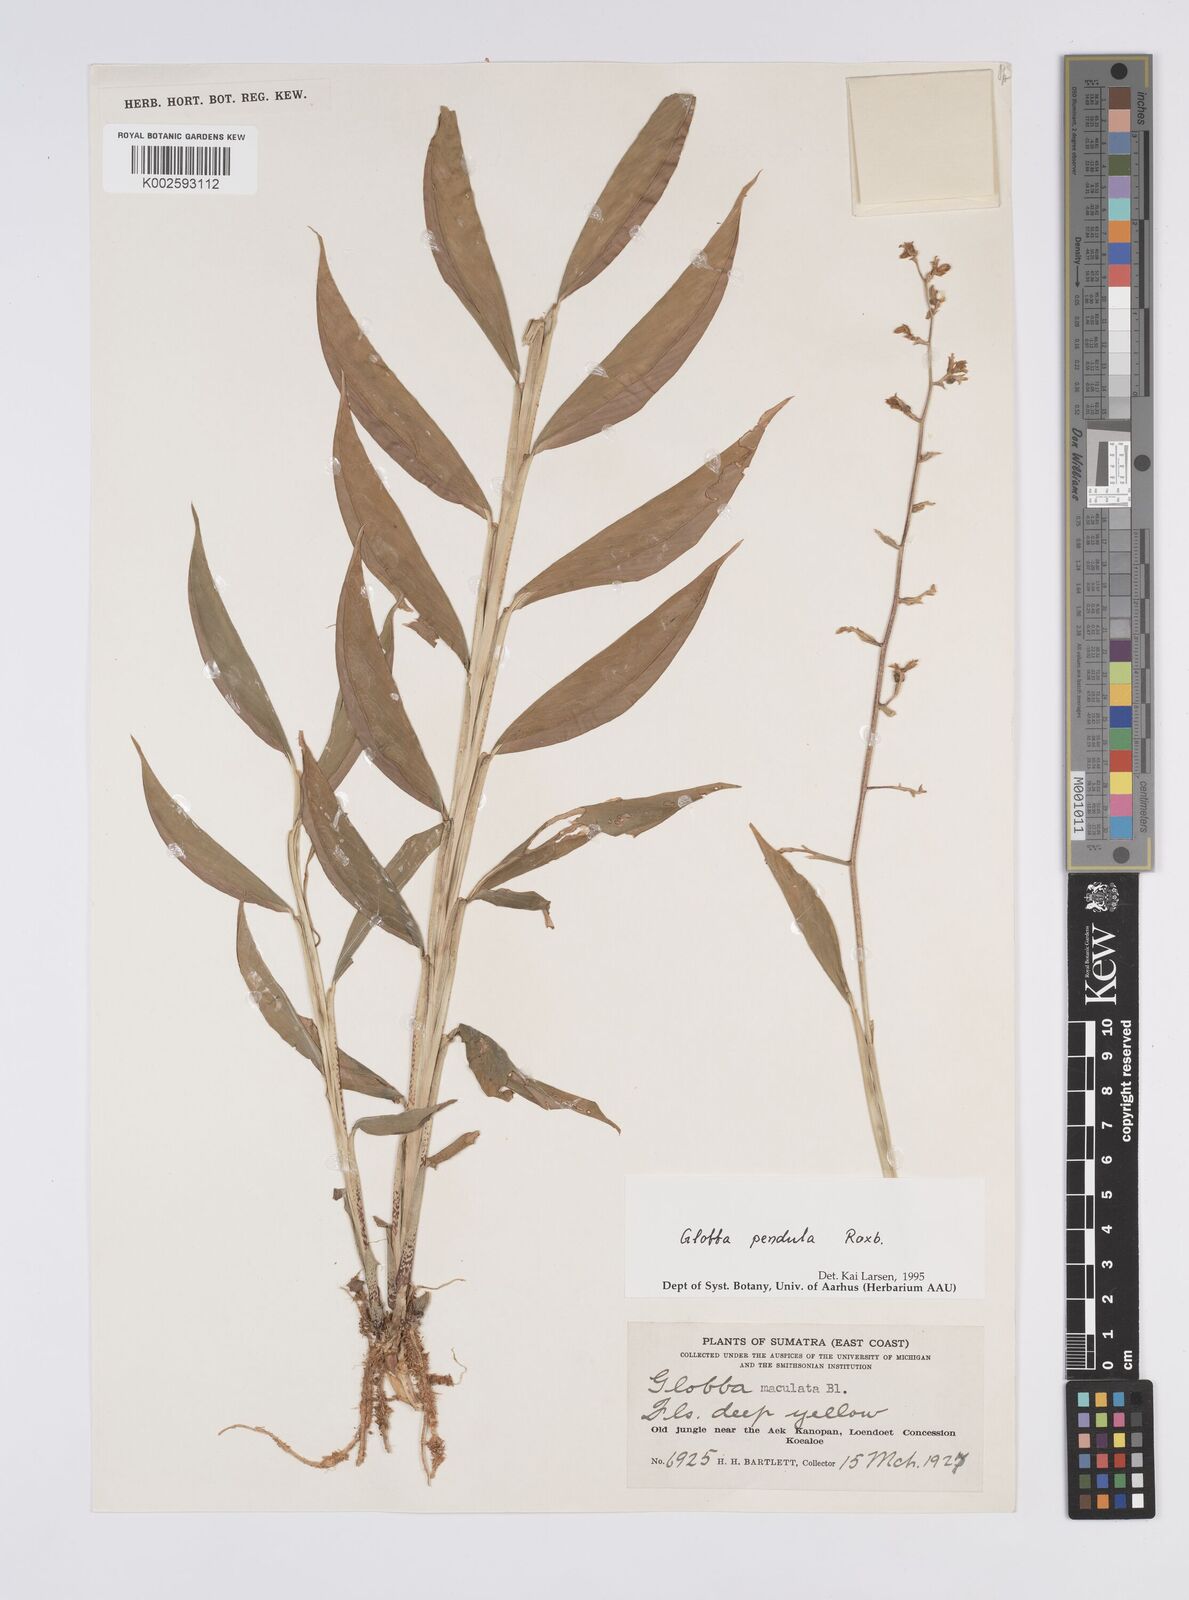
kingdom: Plantae
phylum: Tracheophyta
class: Liliopsida
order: Zingiberales
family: Zingiberaceae
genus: Globba
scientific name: Globba pendula
